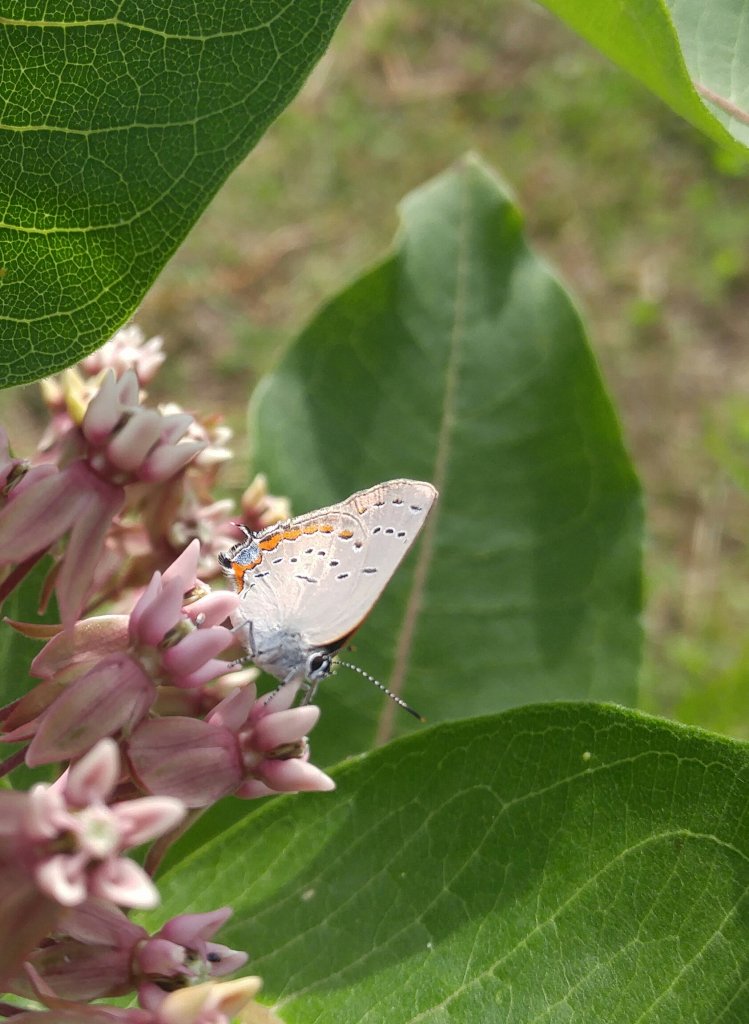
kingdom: Animalia
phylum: Arthropoda
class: Insecta
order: Lepidoptera
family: Lycaenidae
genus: Strymon
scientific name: Strymon acadica
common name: Acadian Hairstreak
